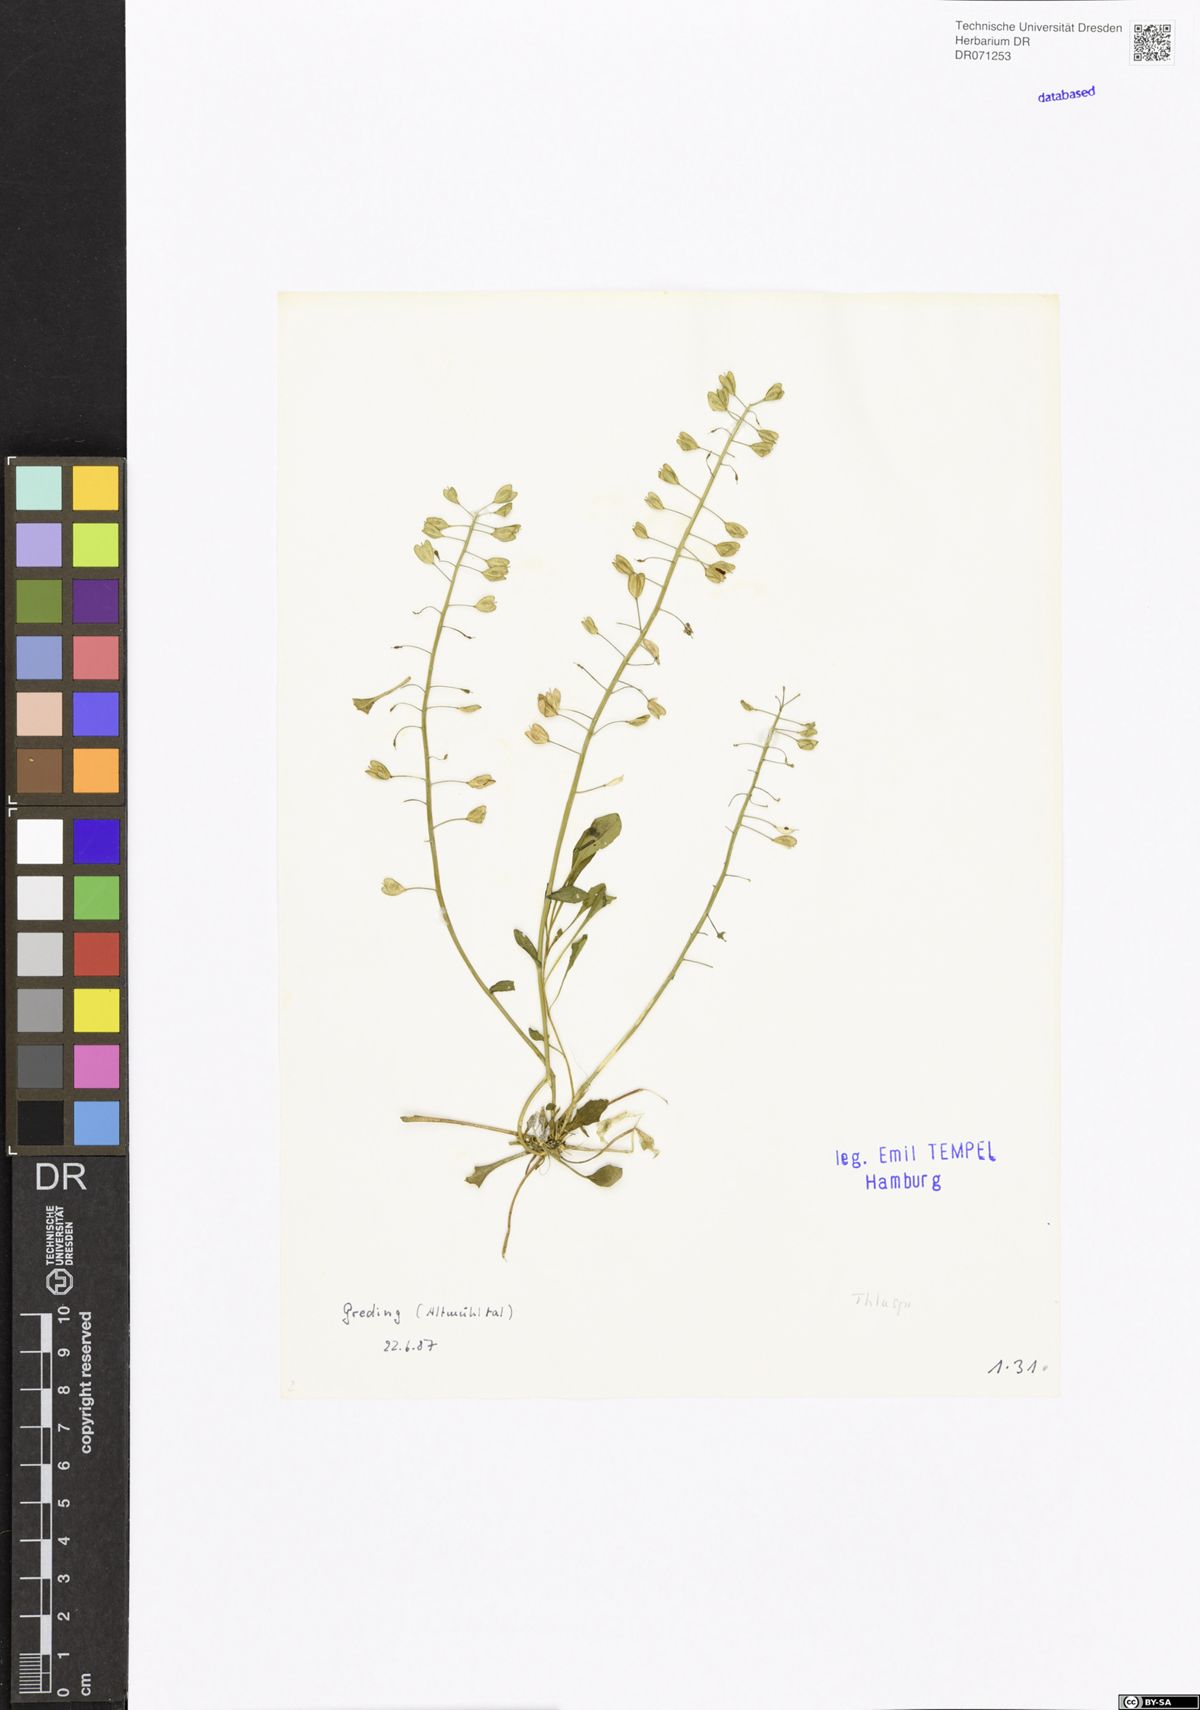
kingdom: Plantae
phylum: Tracheophyta
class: Magnoliopsida
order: Brassicales
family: Brassicaceae
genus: Thlaspi
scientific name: Thlaspi
